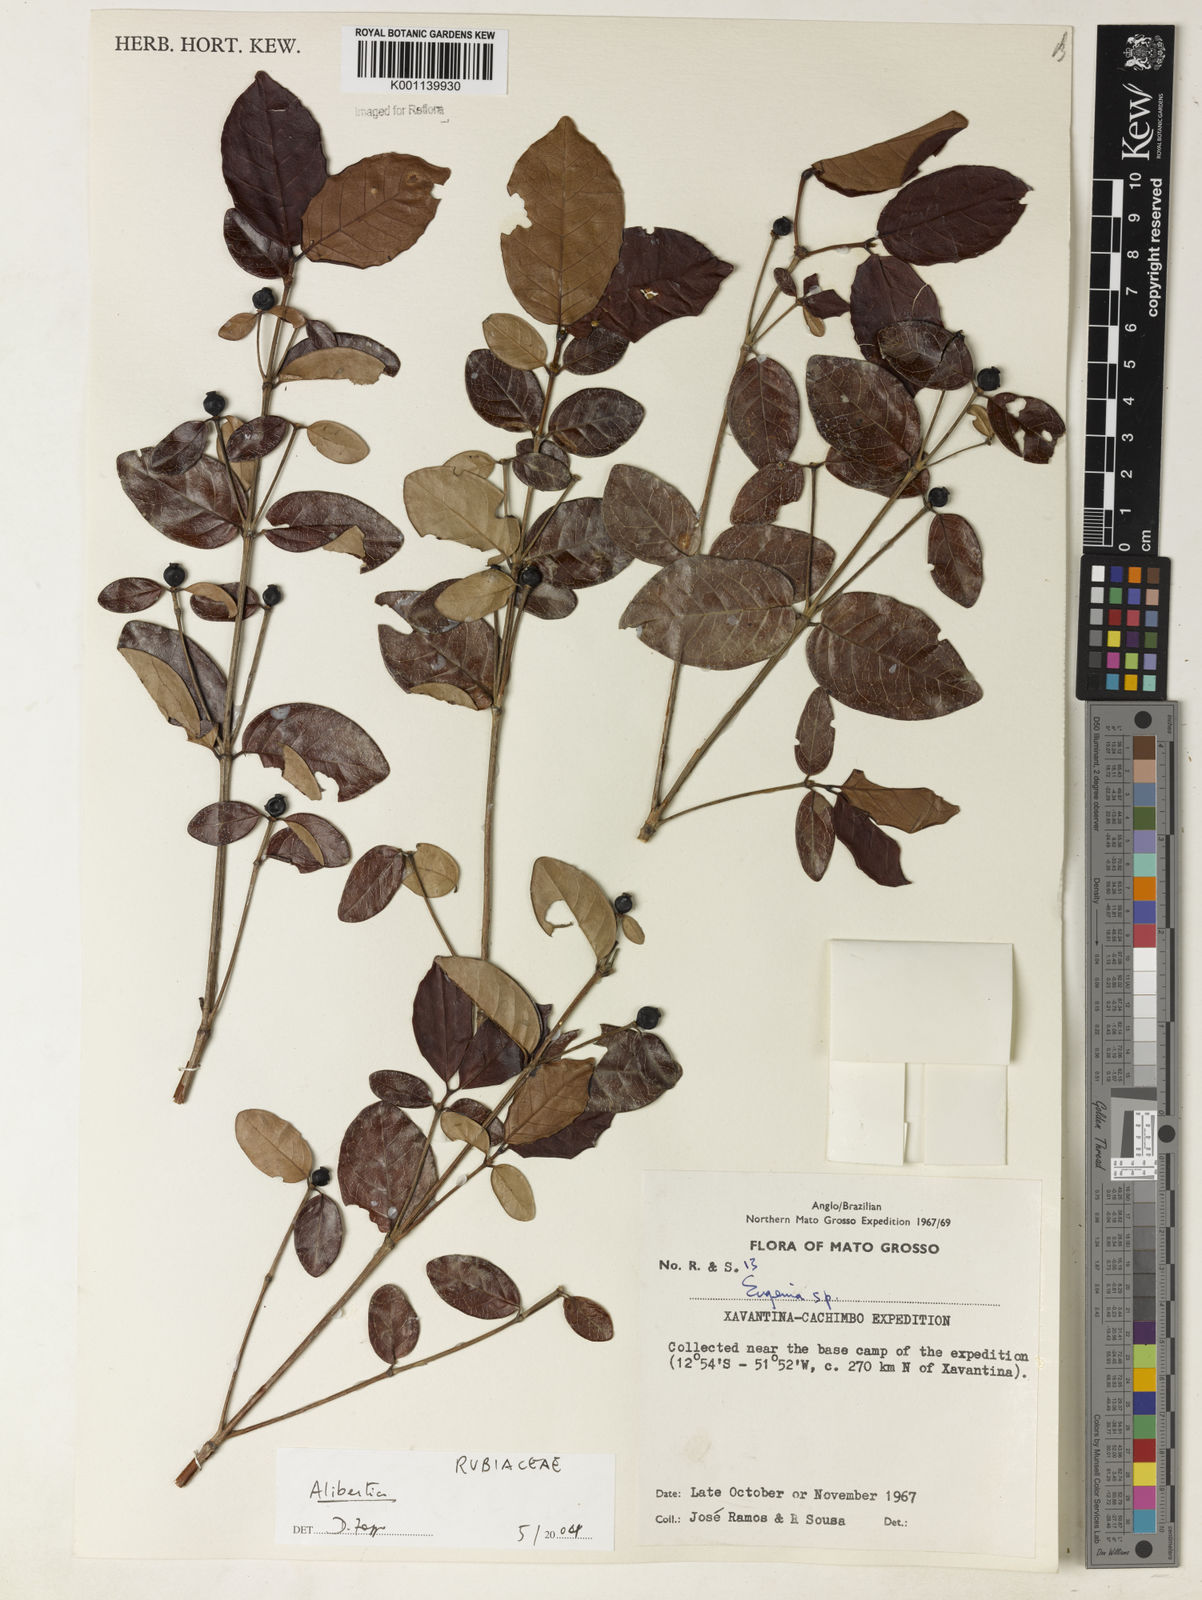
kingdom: Plantae
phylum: Tracheophyta
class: Magnoliopsida
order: Gentianales
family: Rubiaceae
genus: Alibertia
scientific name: Alibertia
